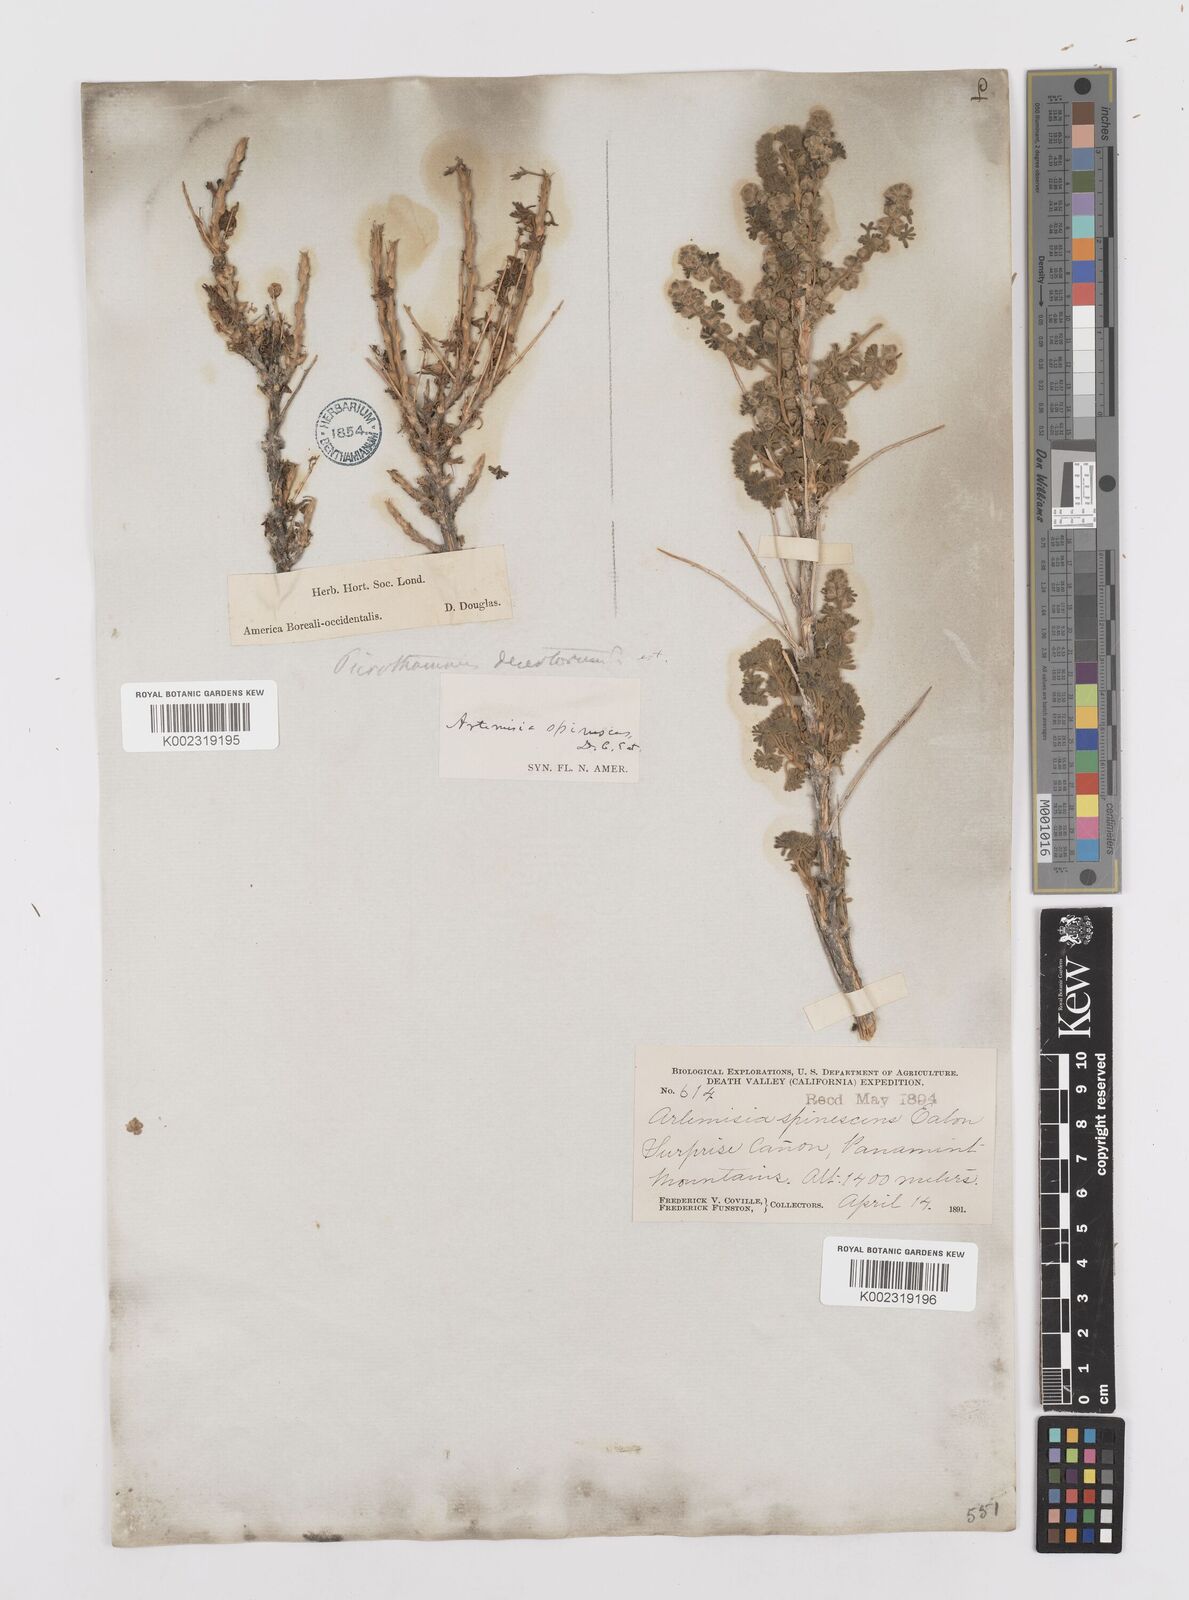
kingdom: Plantae
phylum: Tracheophyta
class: Magnoliopsida
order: Asterales
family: Asteraceae
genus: Artemisia
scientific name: Artemisia spinescens
